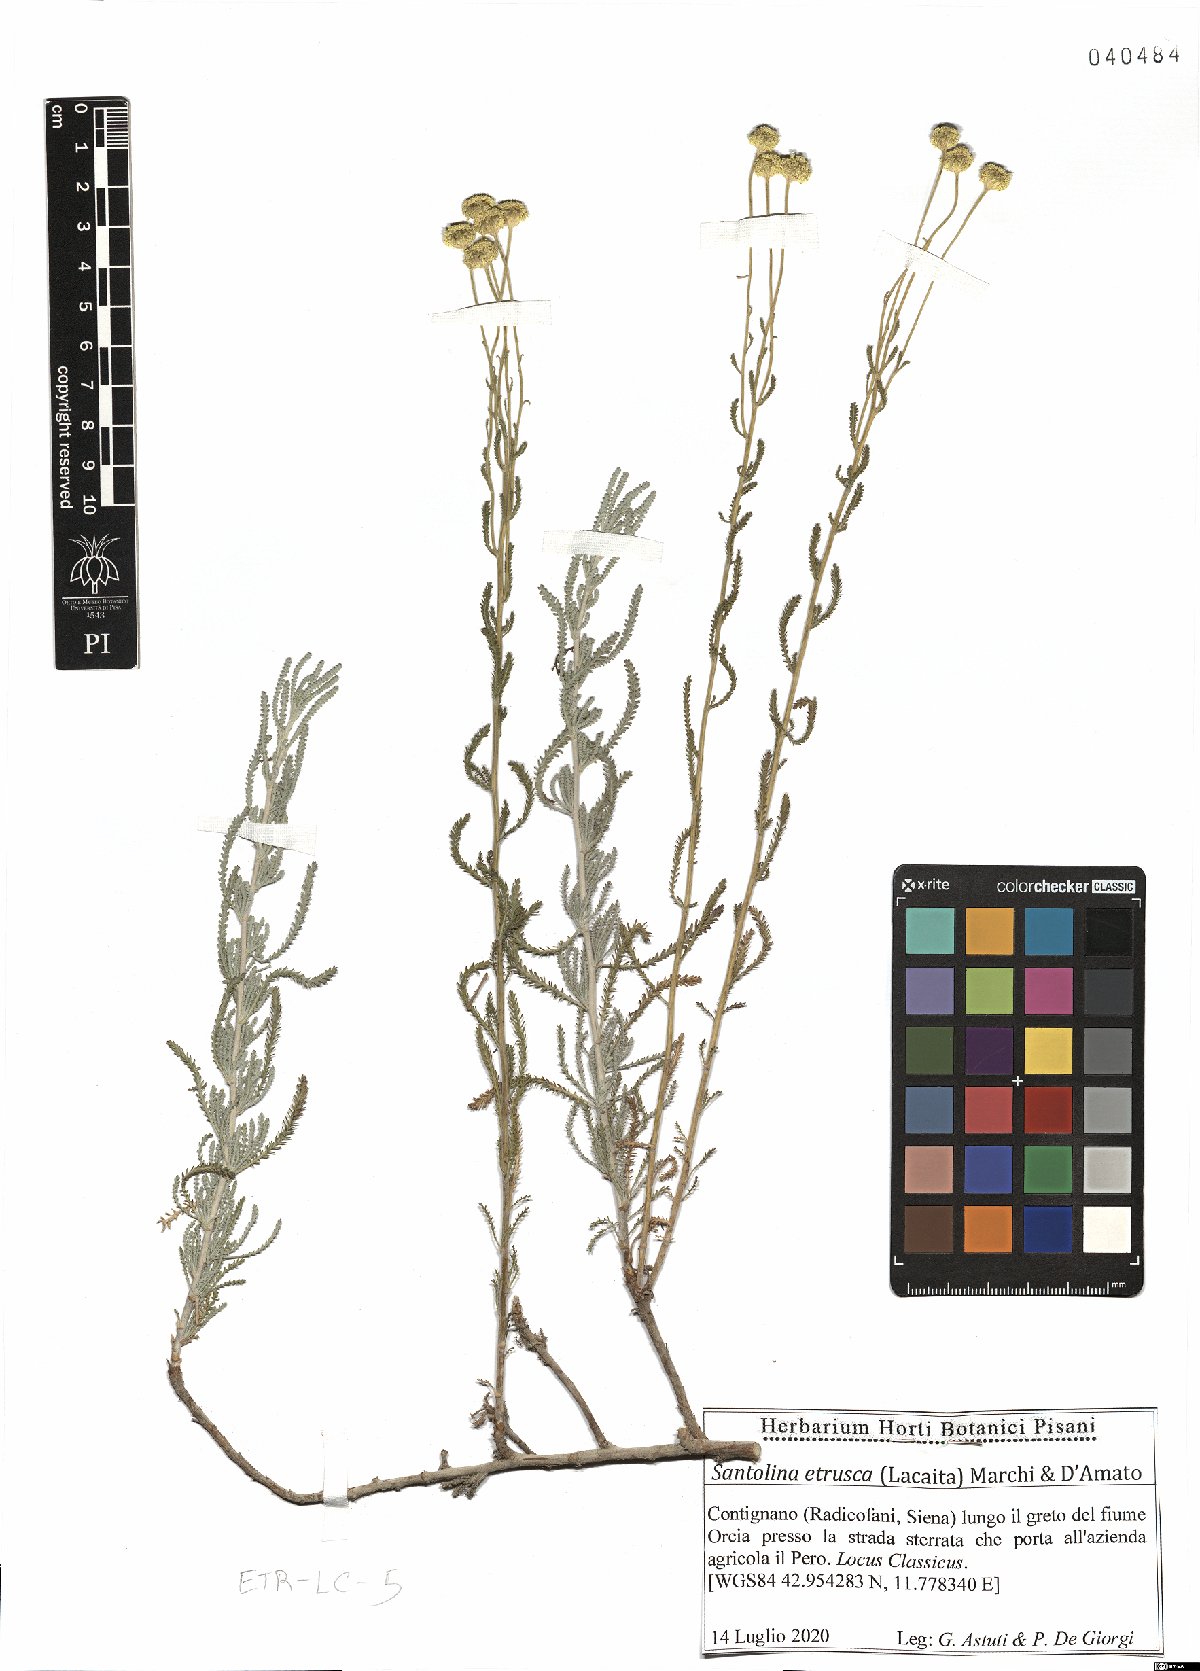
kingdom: Plantae
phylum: Tracheophyta
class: Magnoliopsida
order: Asterales
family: Asteraceae
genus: Santolina
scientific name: Santolina etrusca
